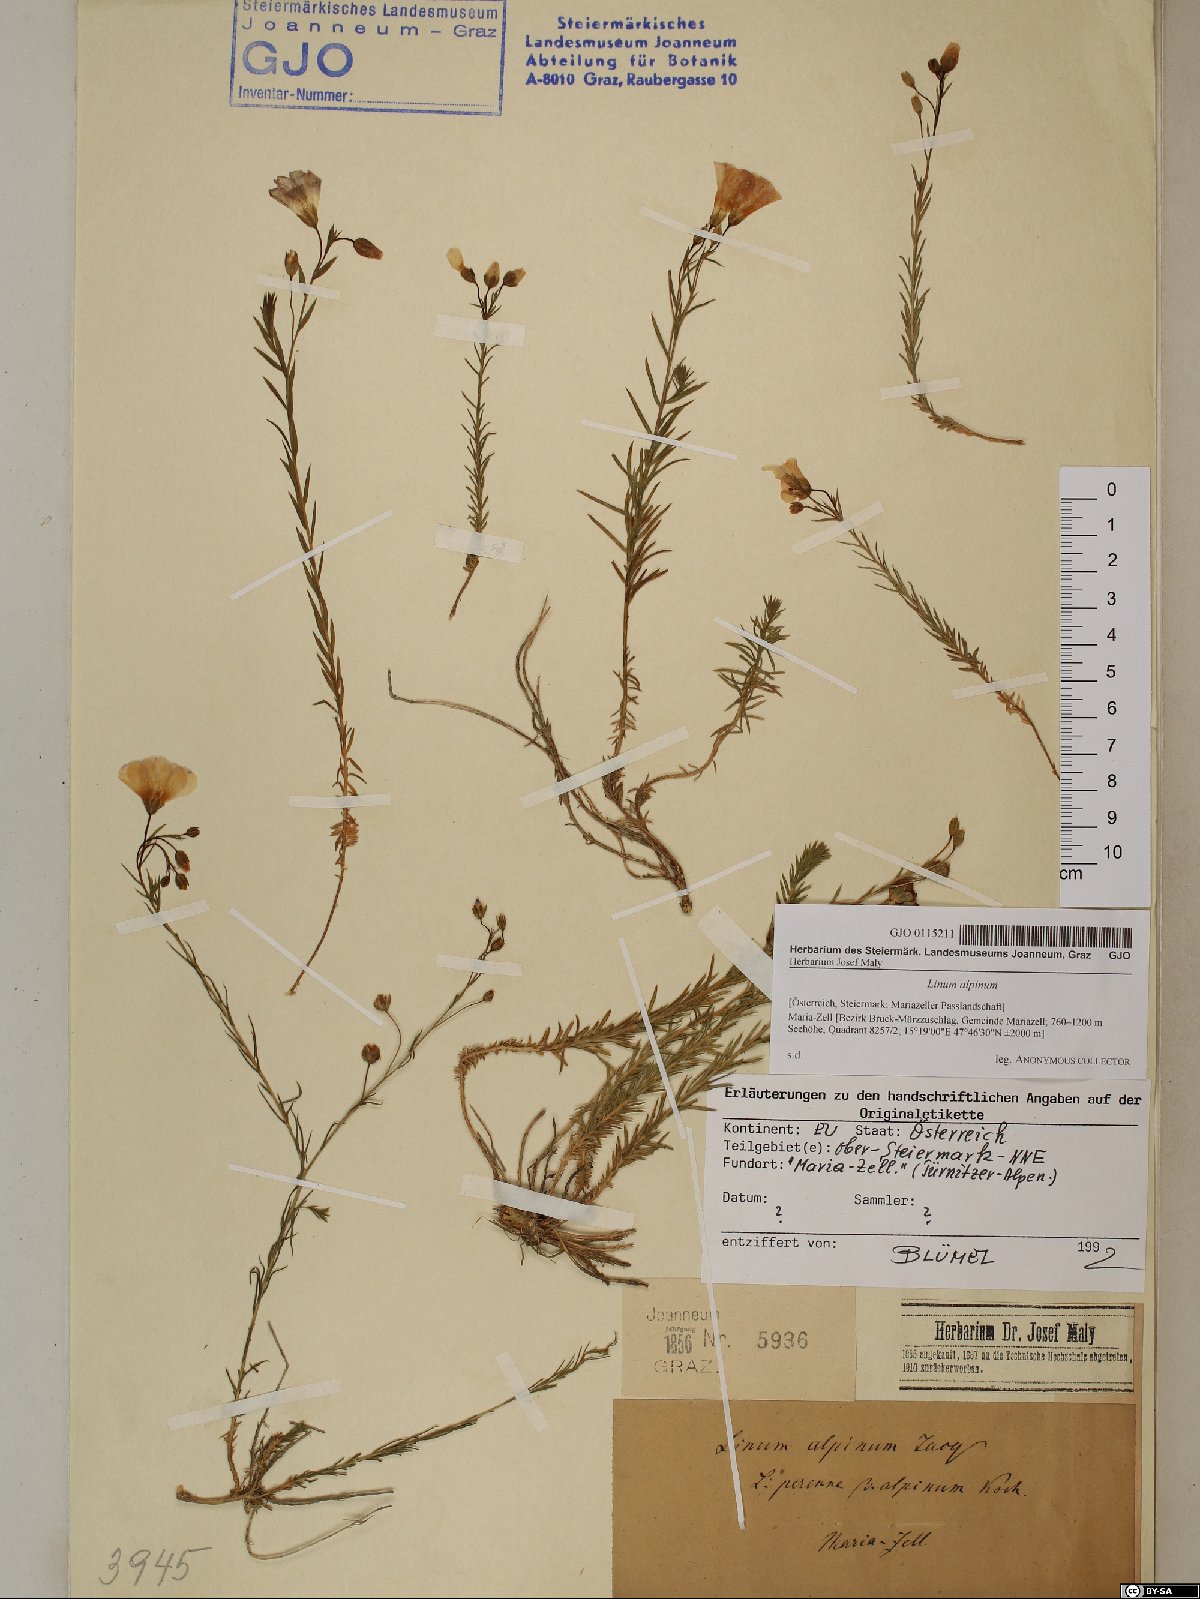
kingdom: Plantae
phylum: Tracheophyta
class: Magnoliopsida
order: Malpighiales
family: Linaceae
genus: Linum
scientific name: Linum alpinum
